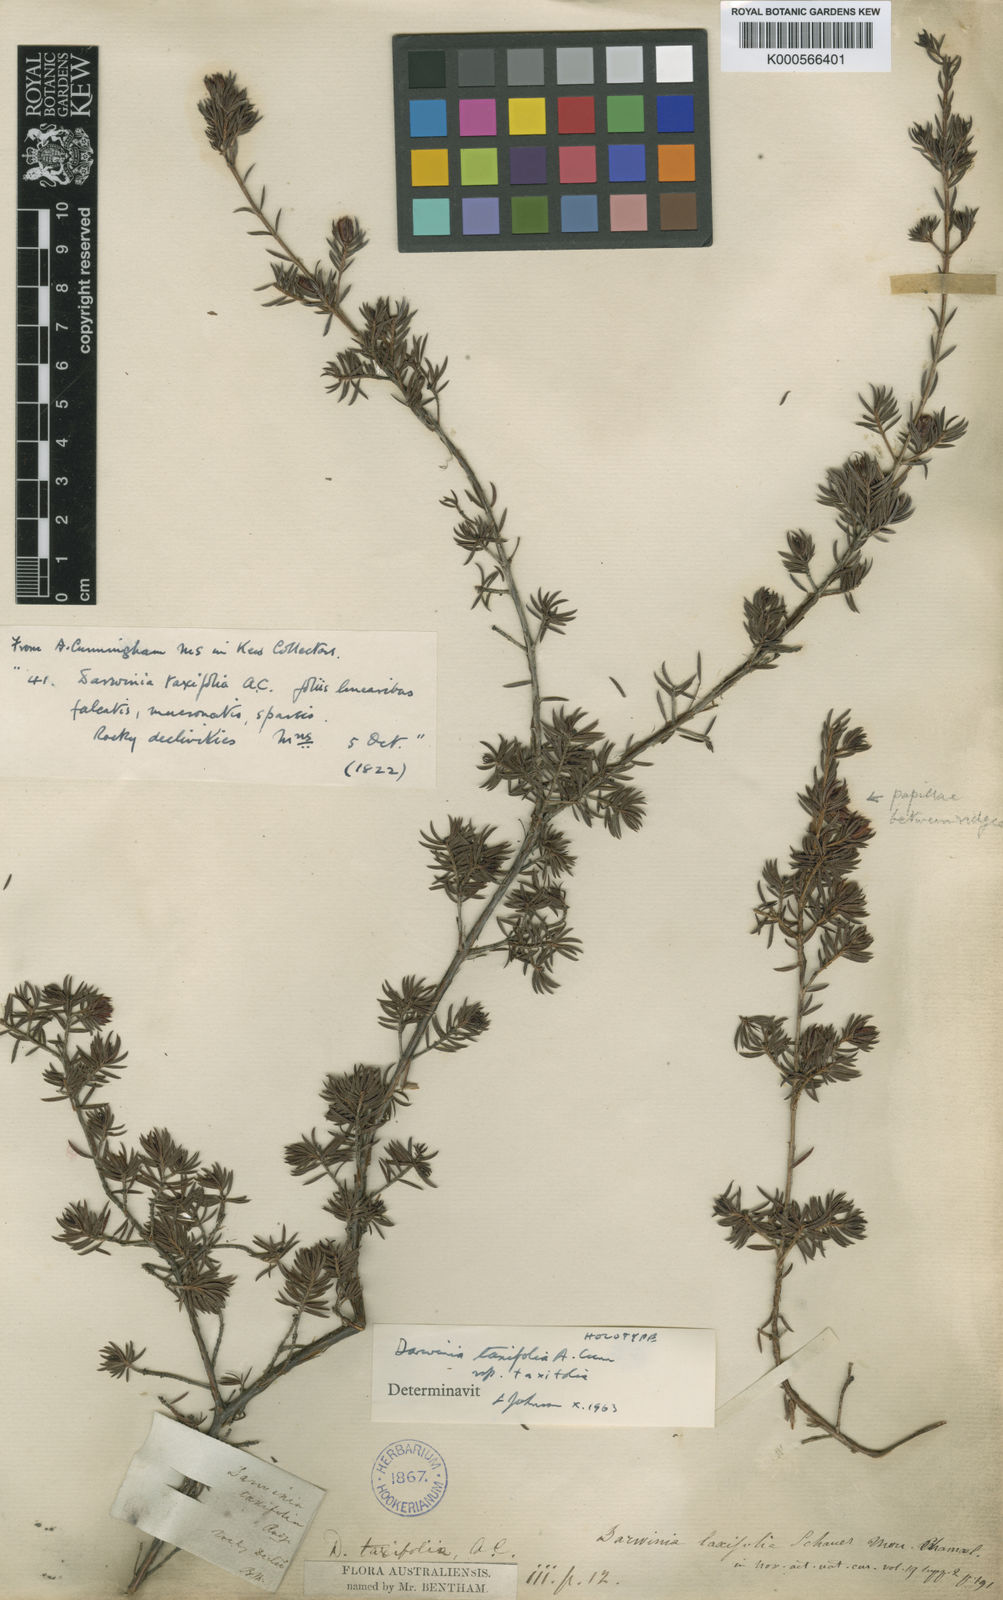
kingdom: Plantae
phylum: Tracheophyta
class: Magnoliopsida
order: Myrtales
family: Myrtaceae
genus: Darwinia
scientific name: Darwinia taxifolia
